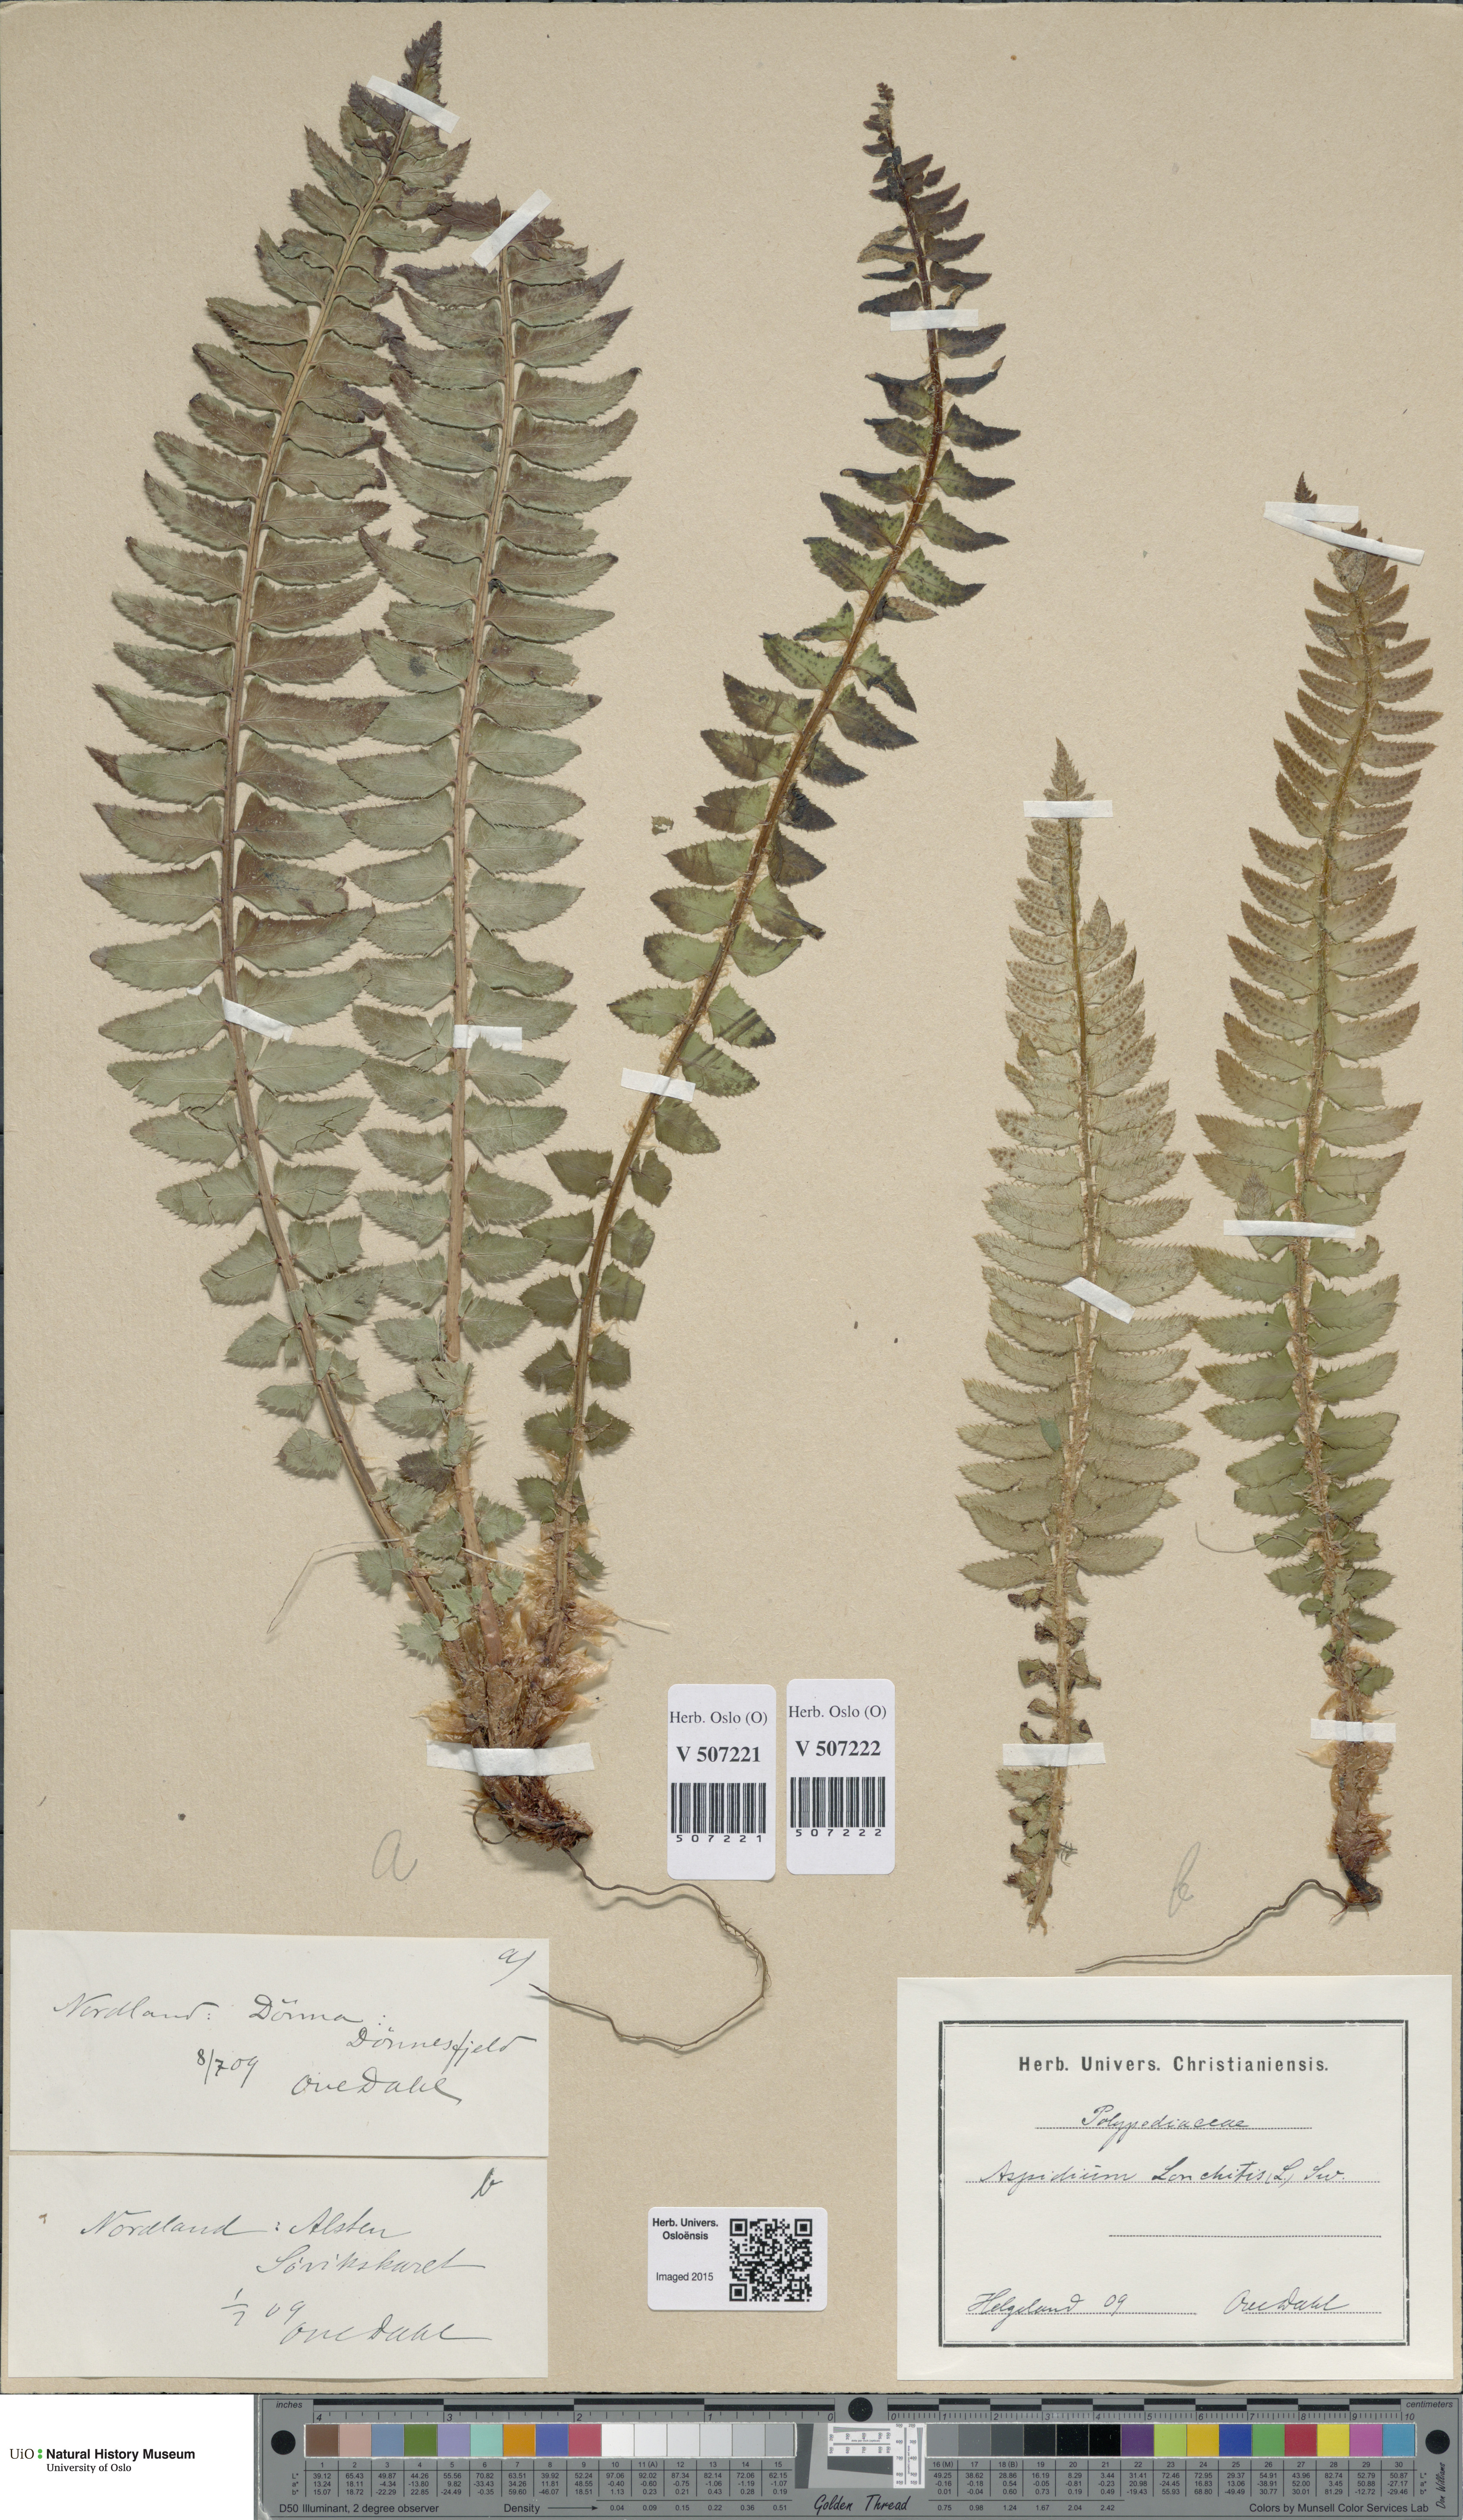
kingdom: Plantae
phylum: Tracheophyta
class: Polypodiopsida
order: Polypodiales
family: Dryopteridaceae
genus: Polystichum
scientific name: Polystichum lonchitis
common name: Holly fern
